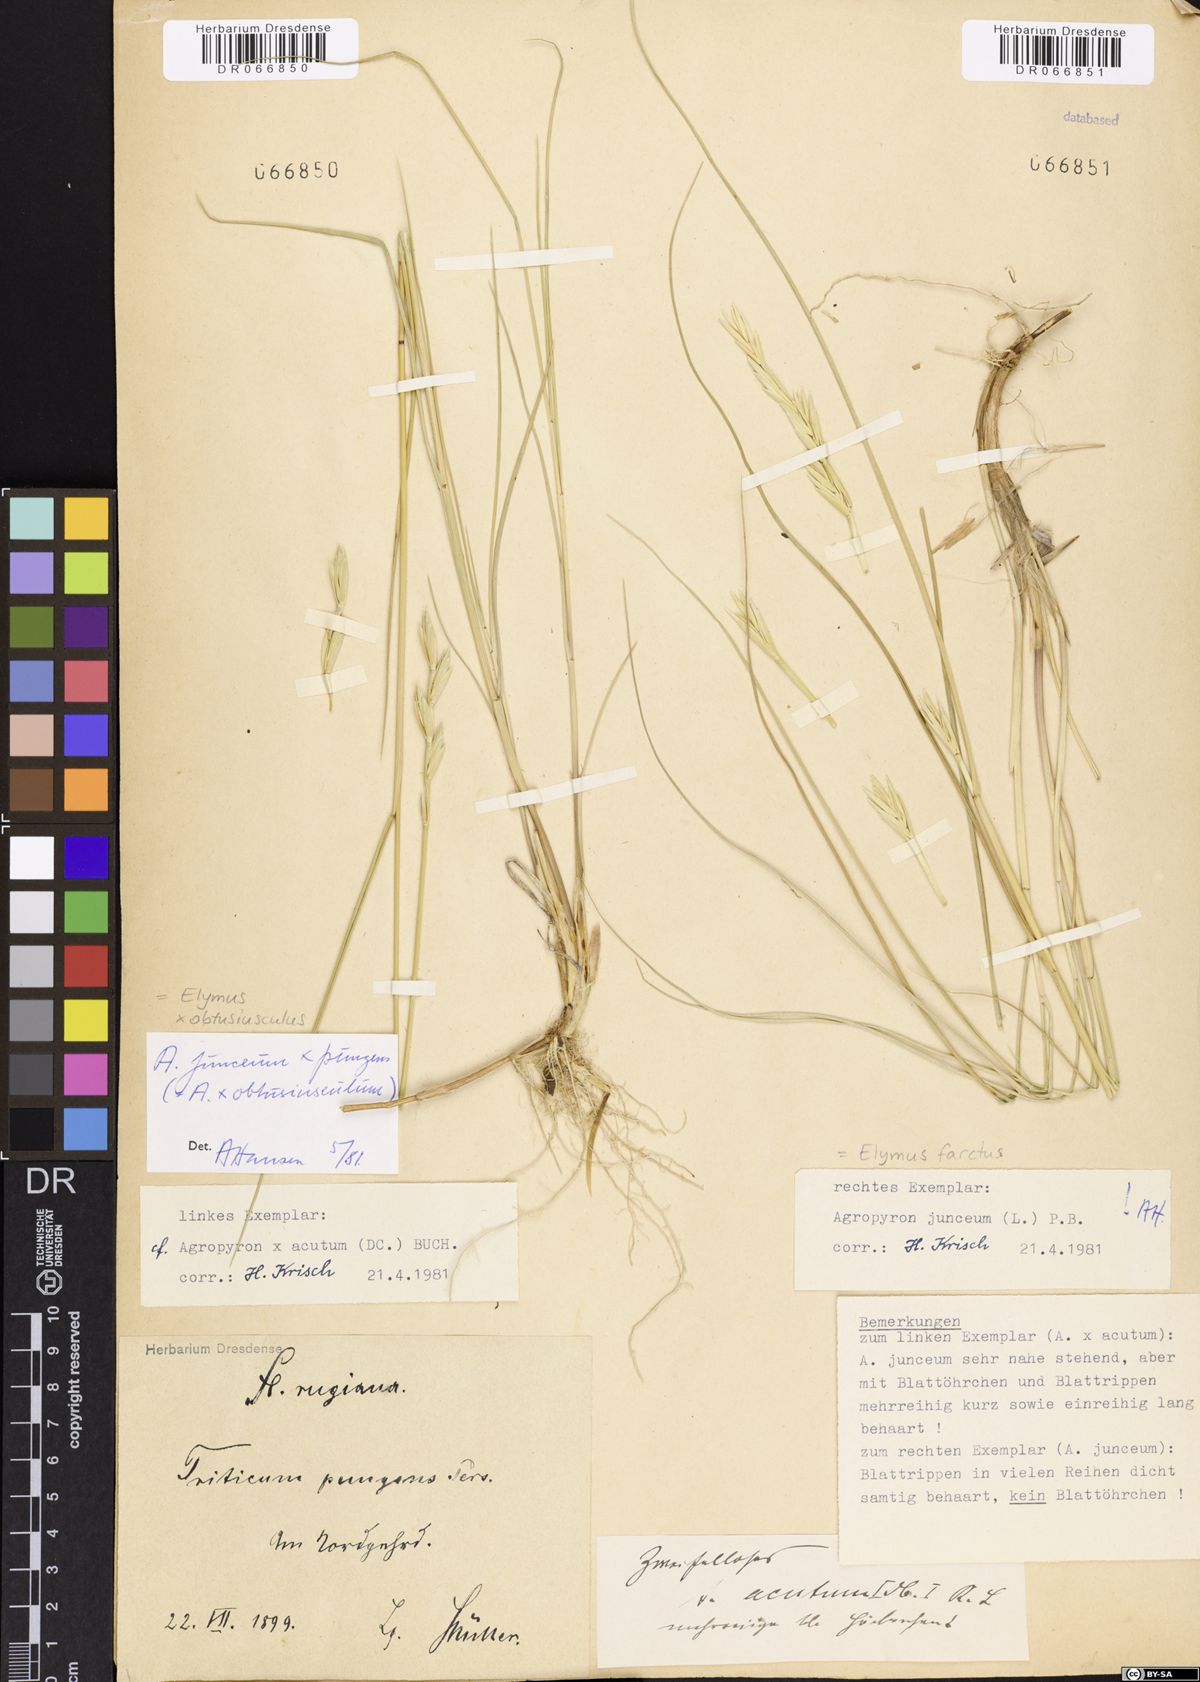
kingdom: Plantae
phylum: Tracheophyta
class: Liliopsida
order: Poales
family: Poaceae
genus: Thinopyrum
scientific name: Thinopyrum junceum
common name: Russian wheatgrass
